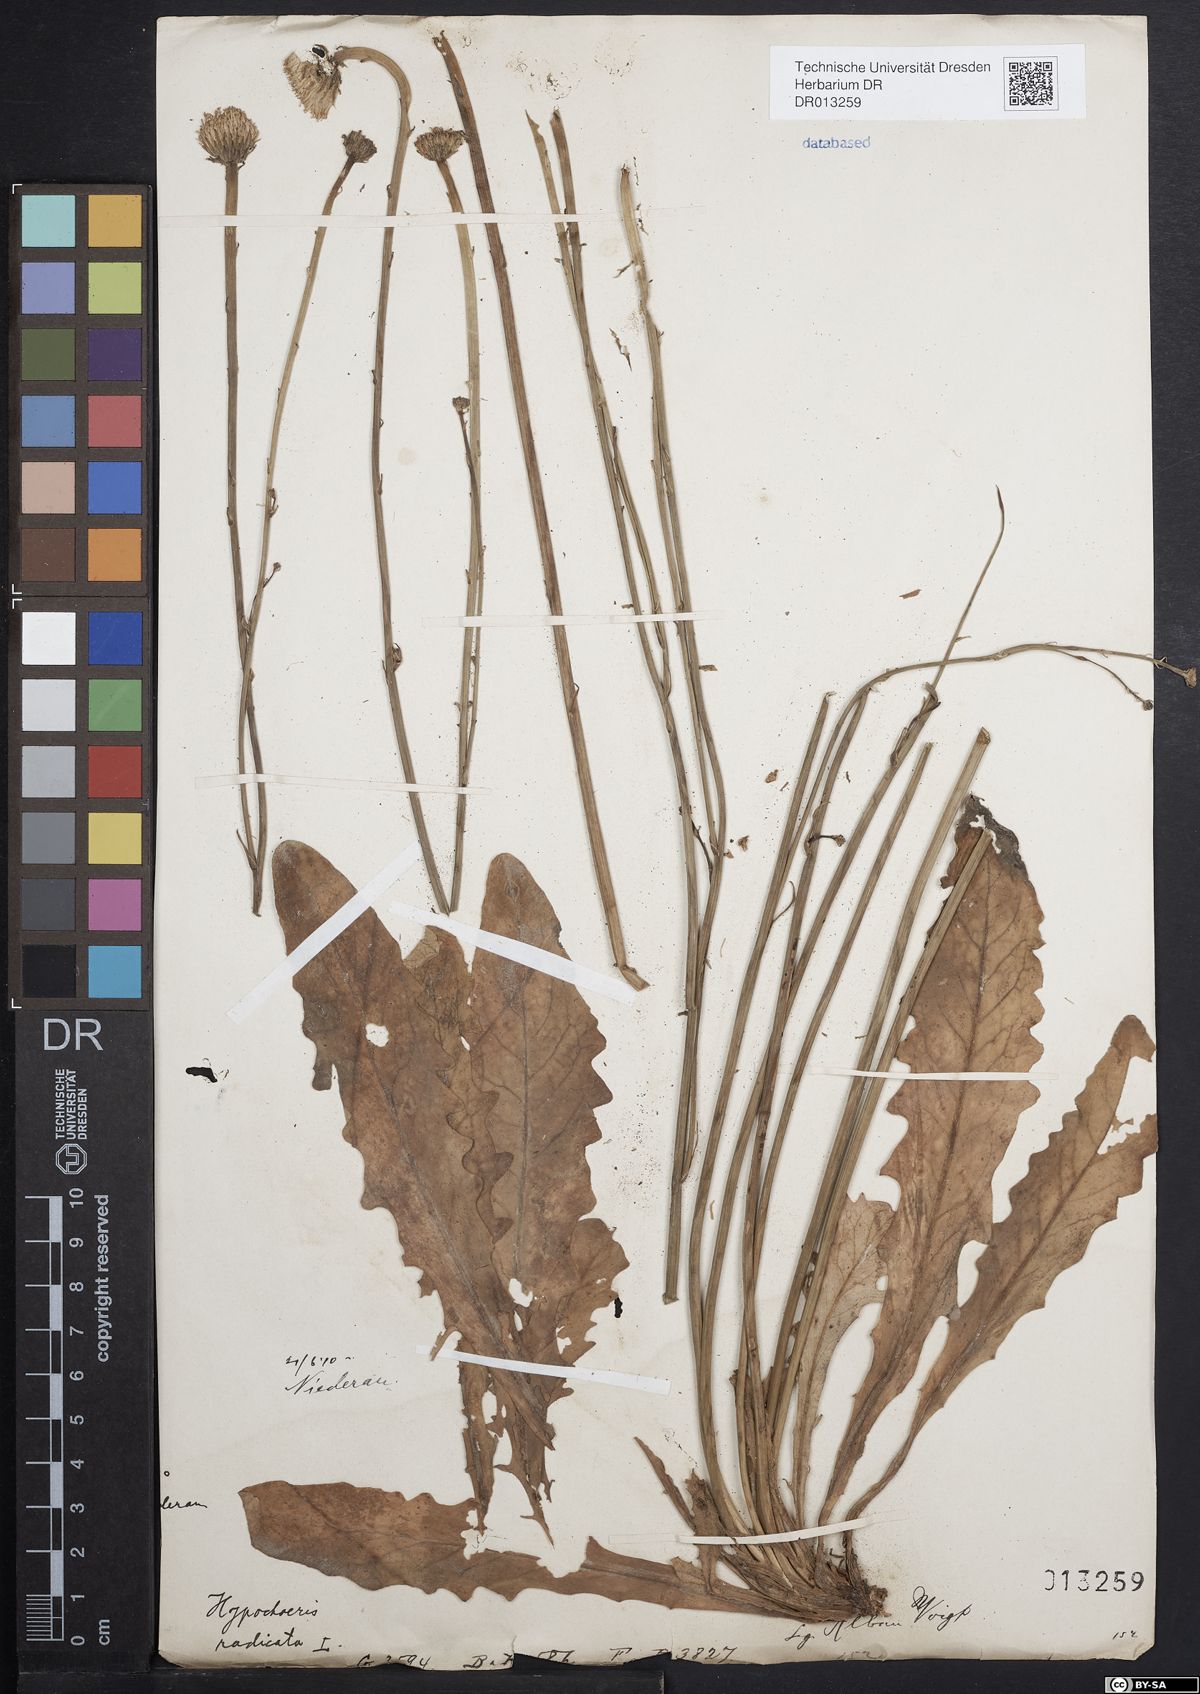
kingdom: Plantae
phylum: Tracheophyta
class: Magnoliopsida
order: Asterales
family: Asteraceae
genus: Hypochaeris
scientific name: Hypochaeris radicata
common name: Flatweed
